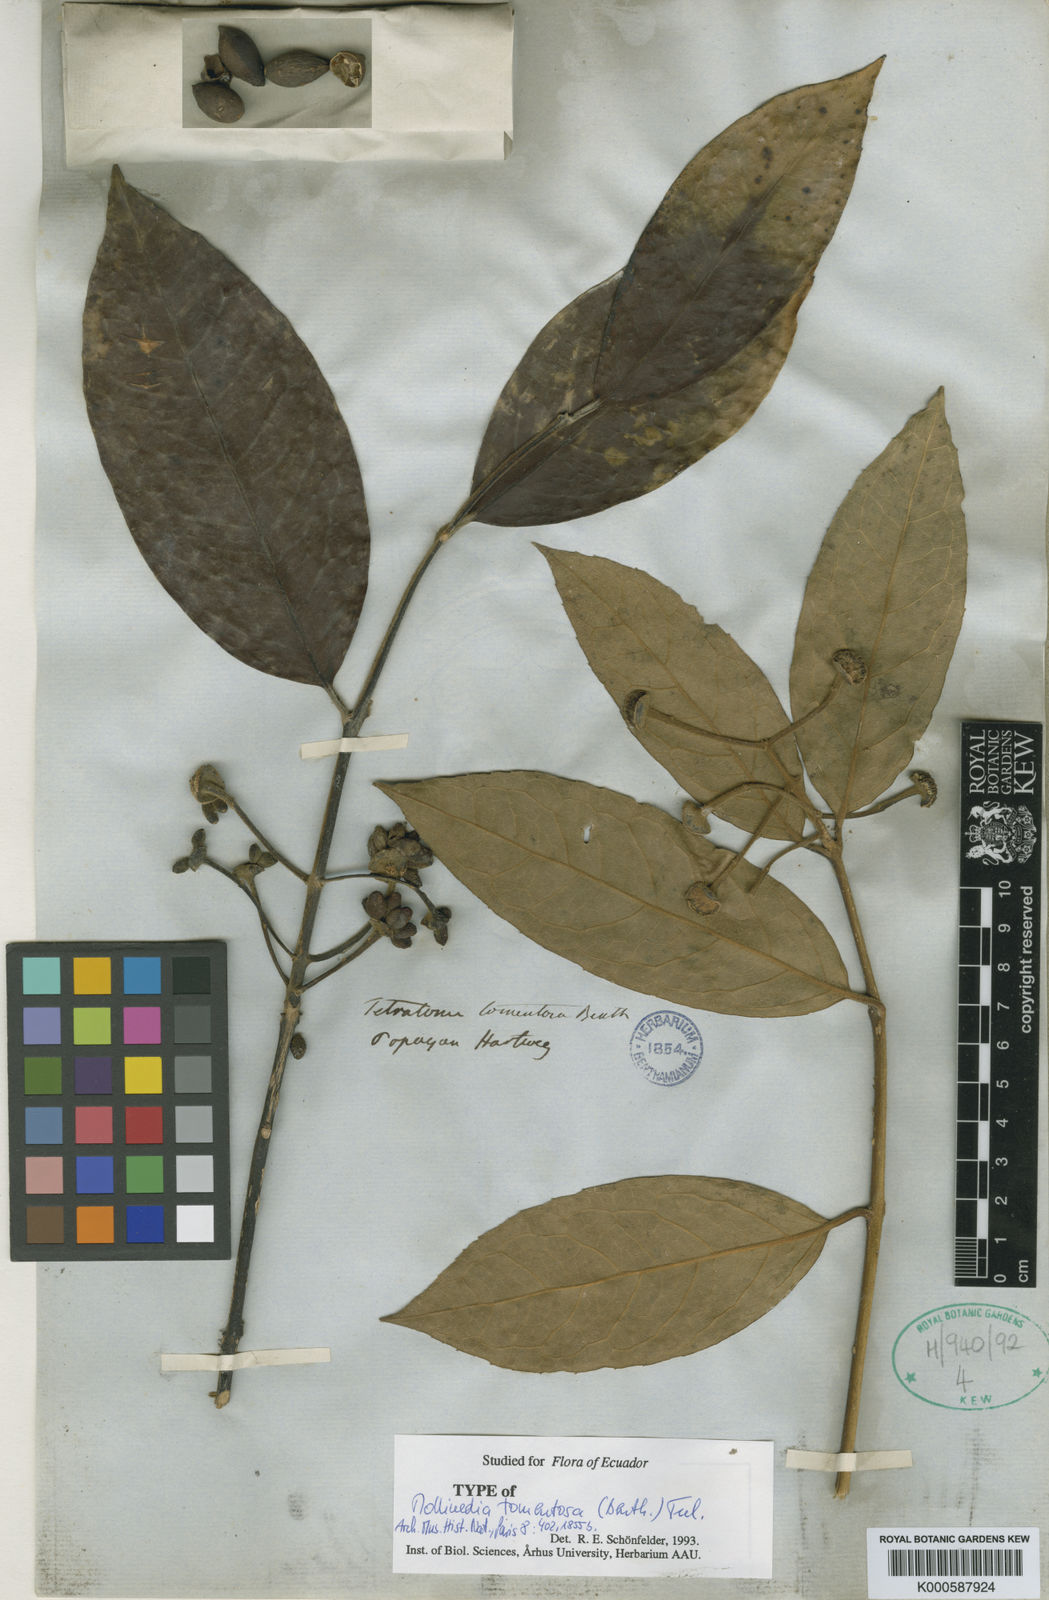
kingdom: Plantae
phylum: Tracheophyta
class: Magnoliopsida
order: Laurales
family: Monimiaceae
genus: Mollinedia
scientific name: Mollinedia tomentosa
